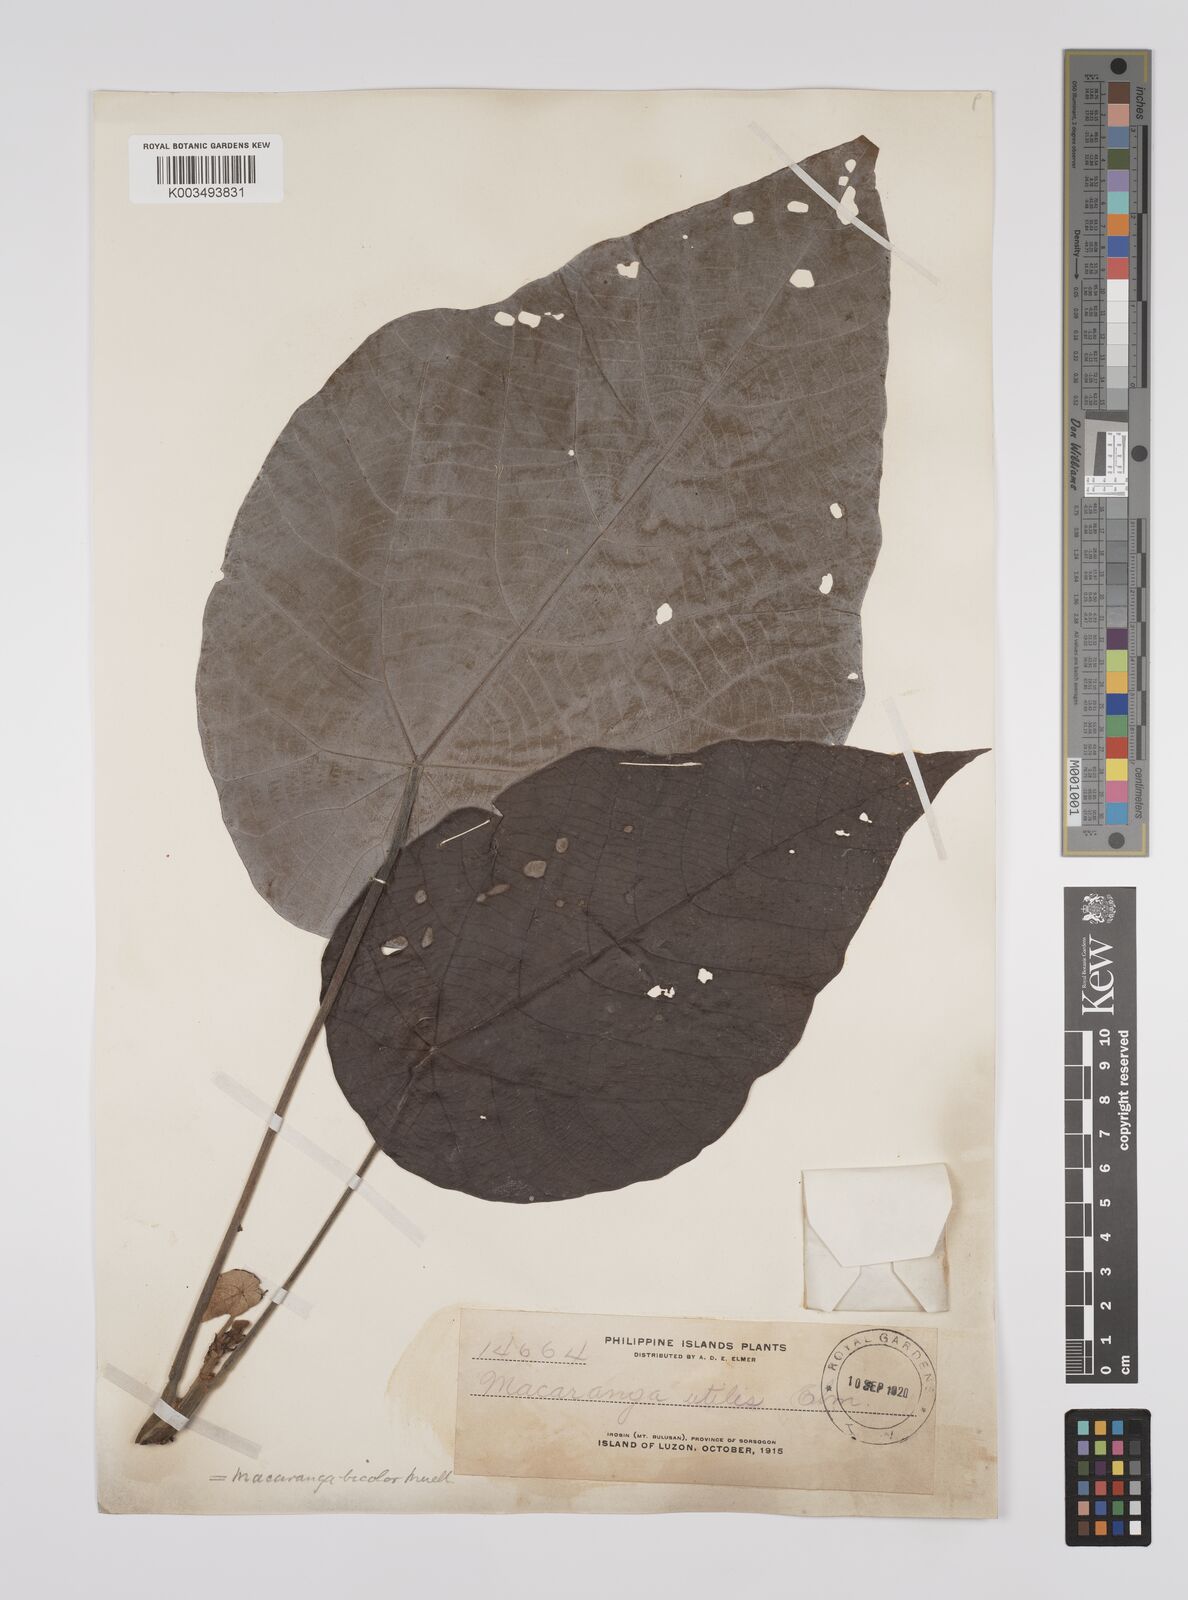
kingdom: Plantae
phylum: Tracheophyta
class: Magnoliopsida
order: Malpighiales
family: Euphorbiaceae
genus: Macaranga
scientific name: Macaranga bicolor
